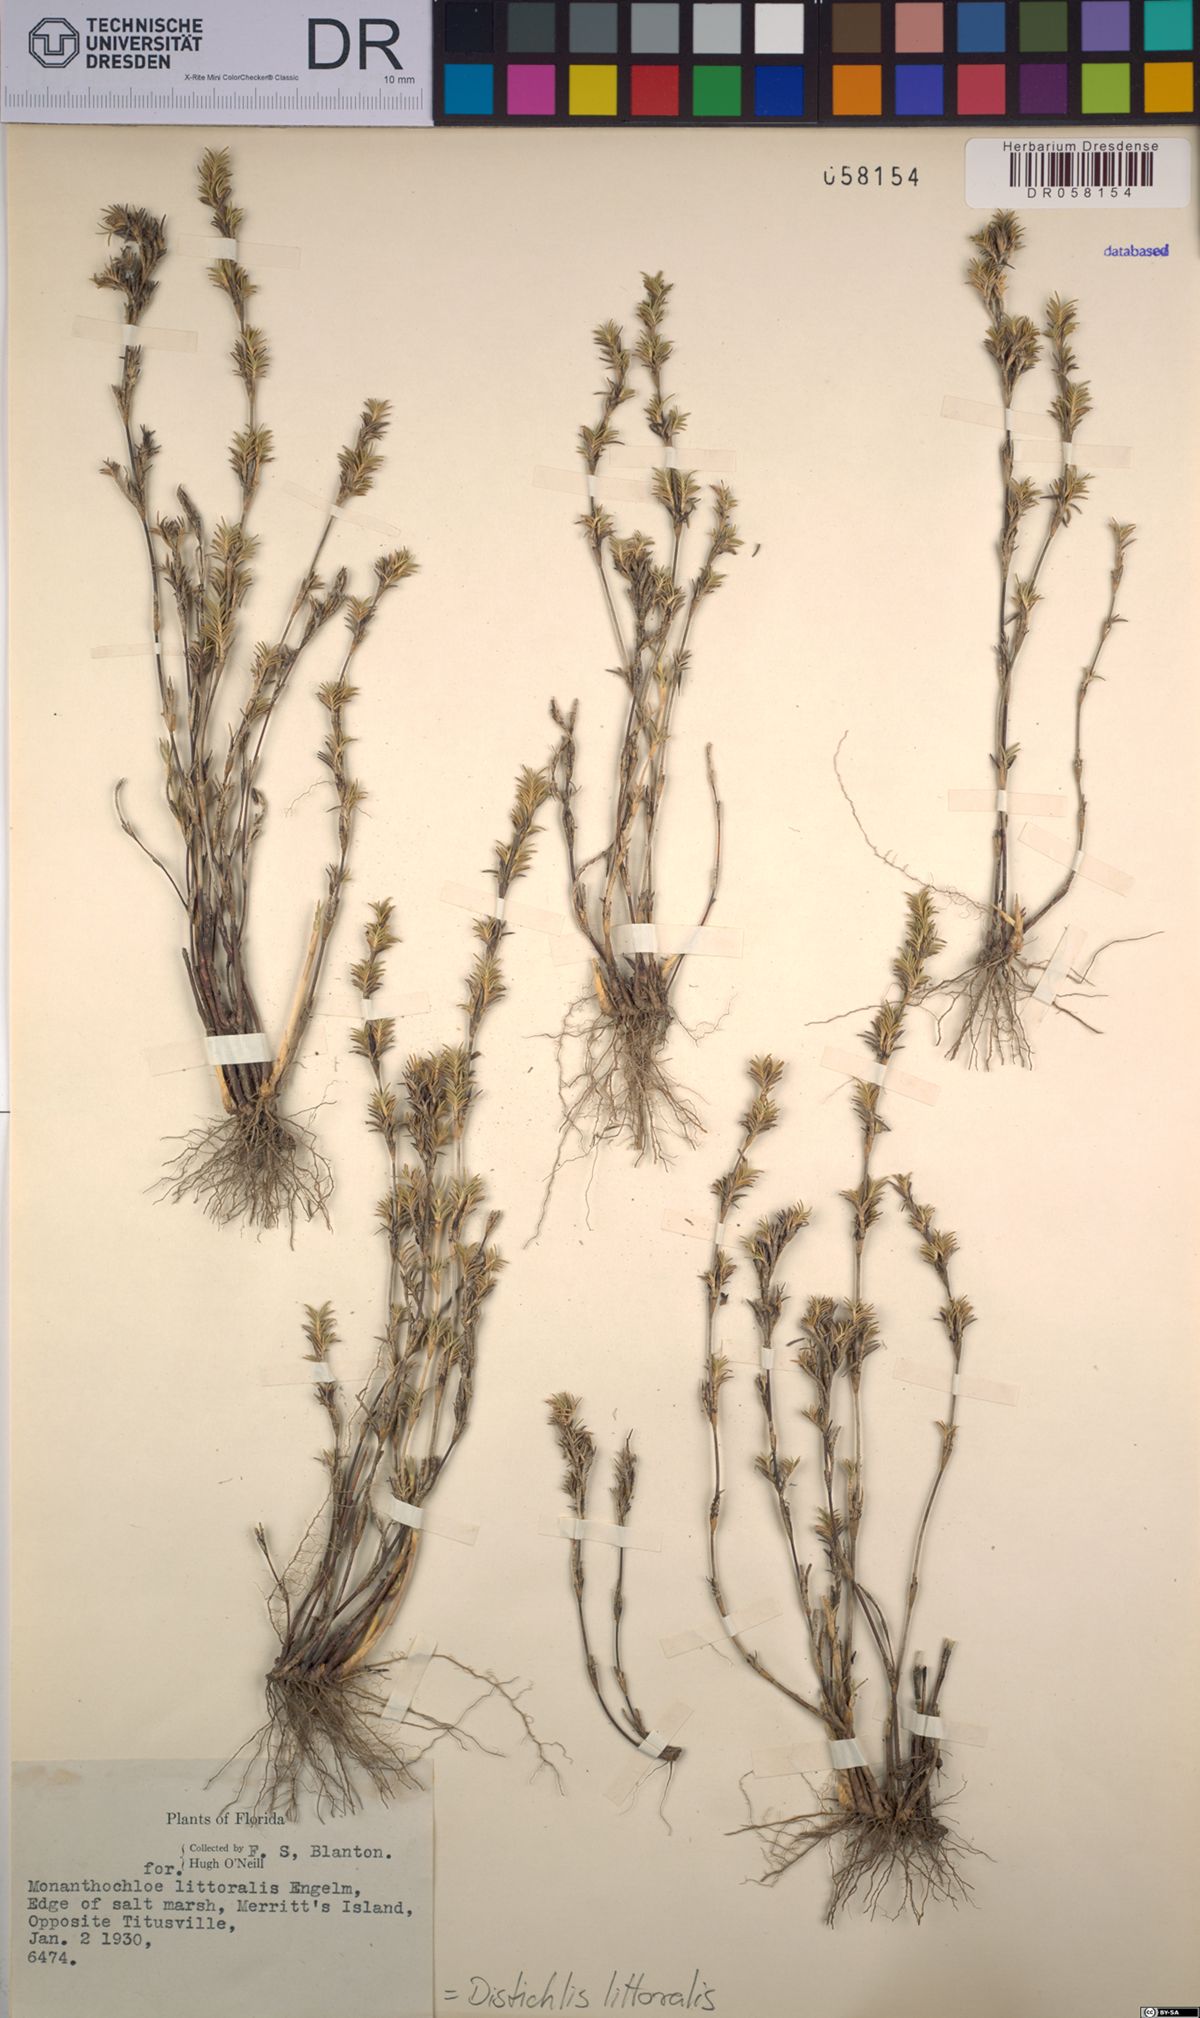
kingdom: Plantae
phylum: Tracheophyta
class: Liliopsida
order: Poales
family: Poaceae
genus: Distichlis
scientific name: Distichlis littoralis
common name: Shore grass
